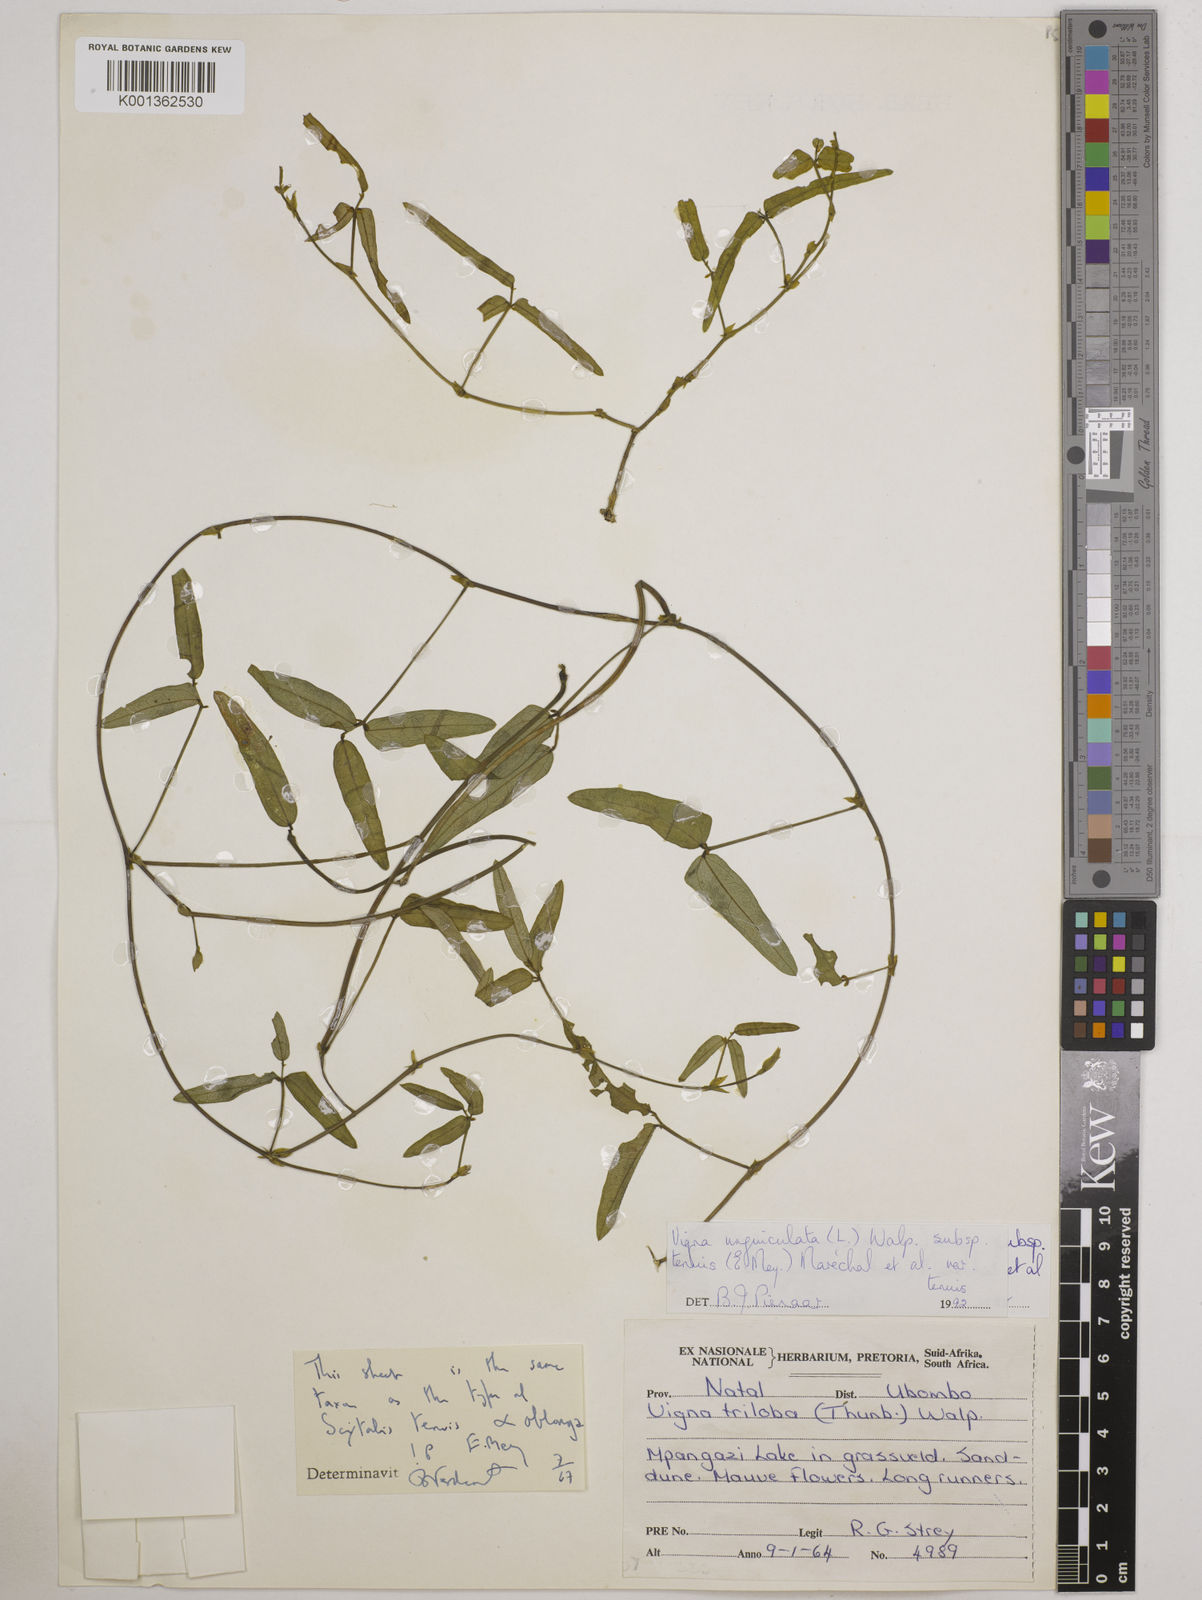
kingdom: Plantae
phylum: Tracheophyta
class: Magnoliopsida
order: Fabales
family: Fabaceae
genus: Vigna
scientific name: Vigna unguiculata
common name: Cowpea
